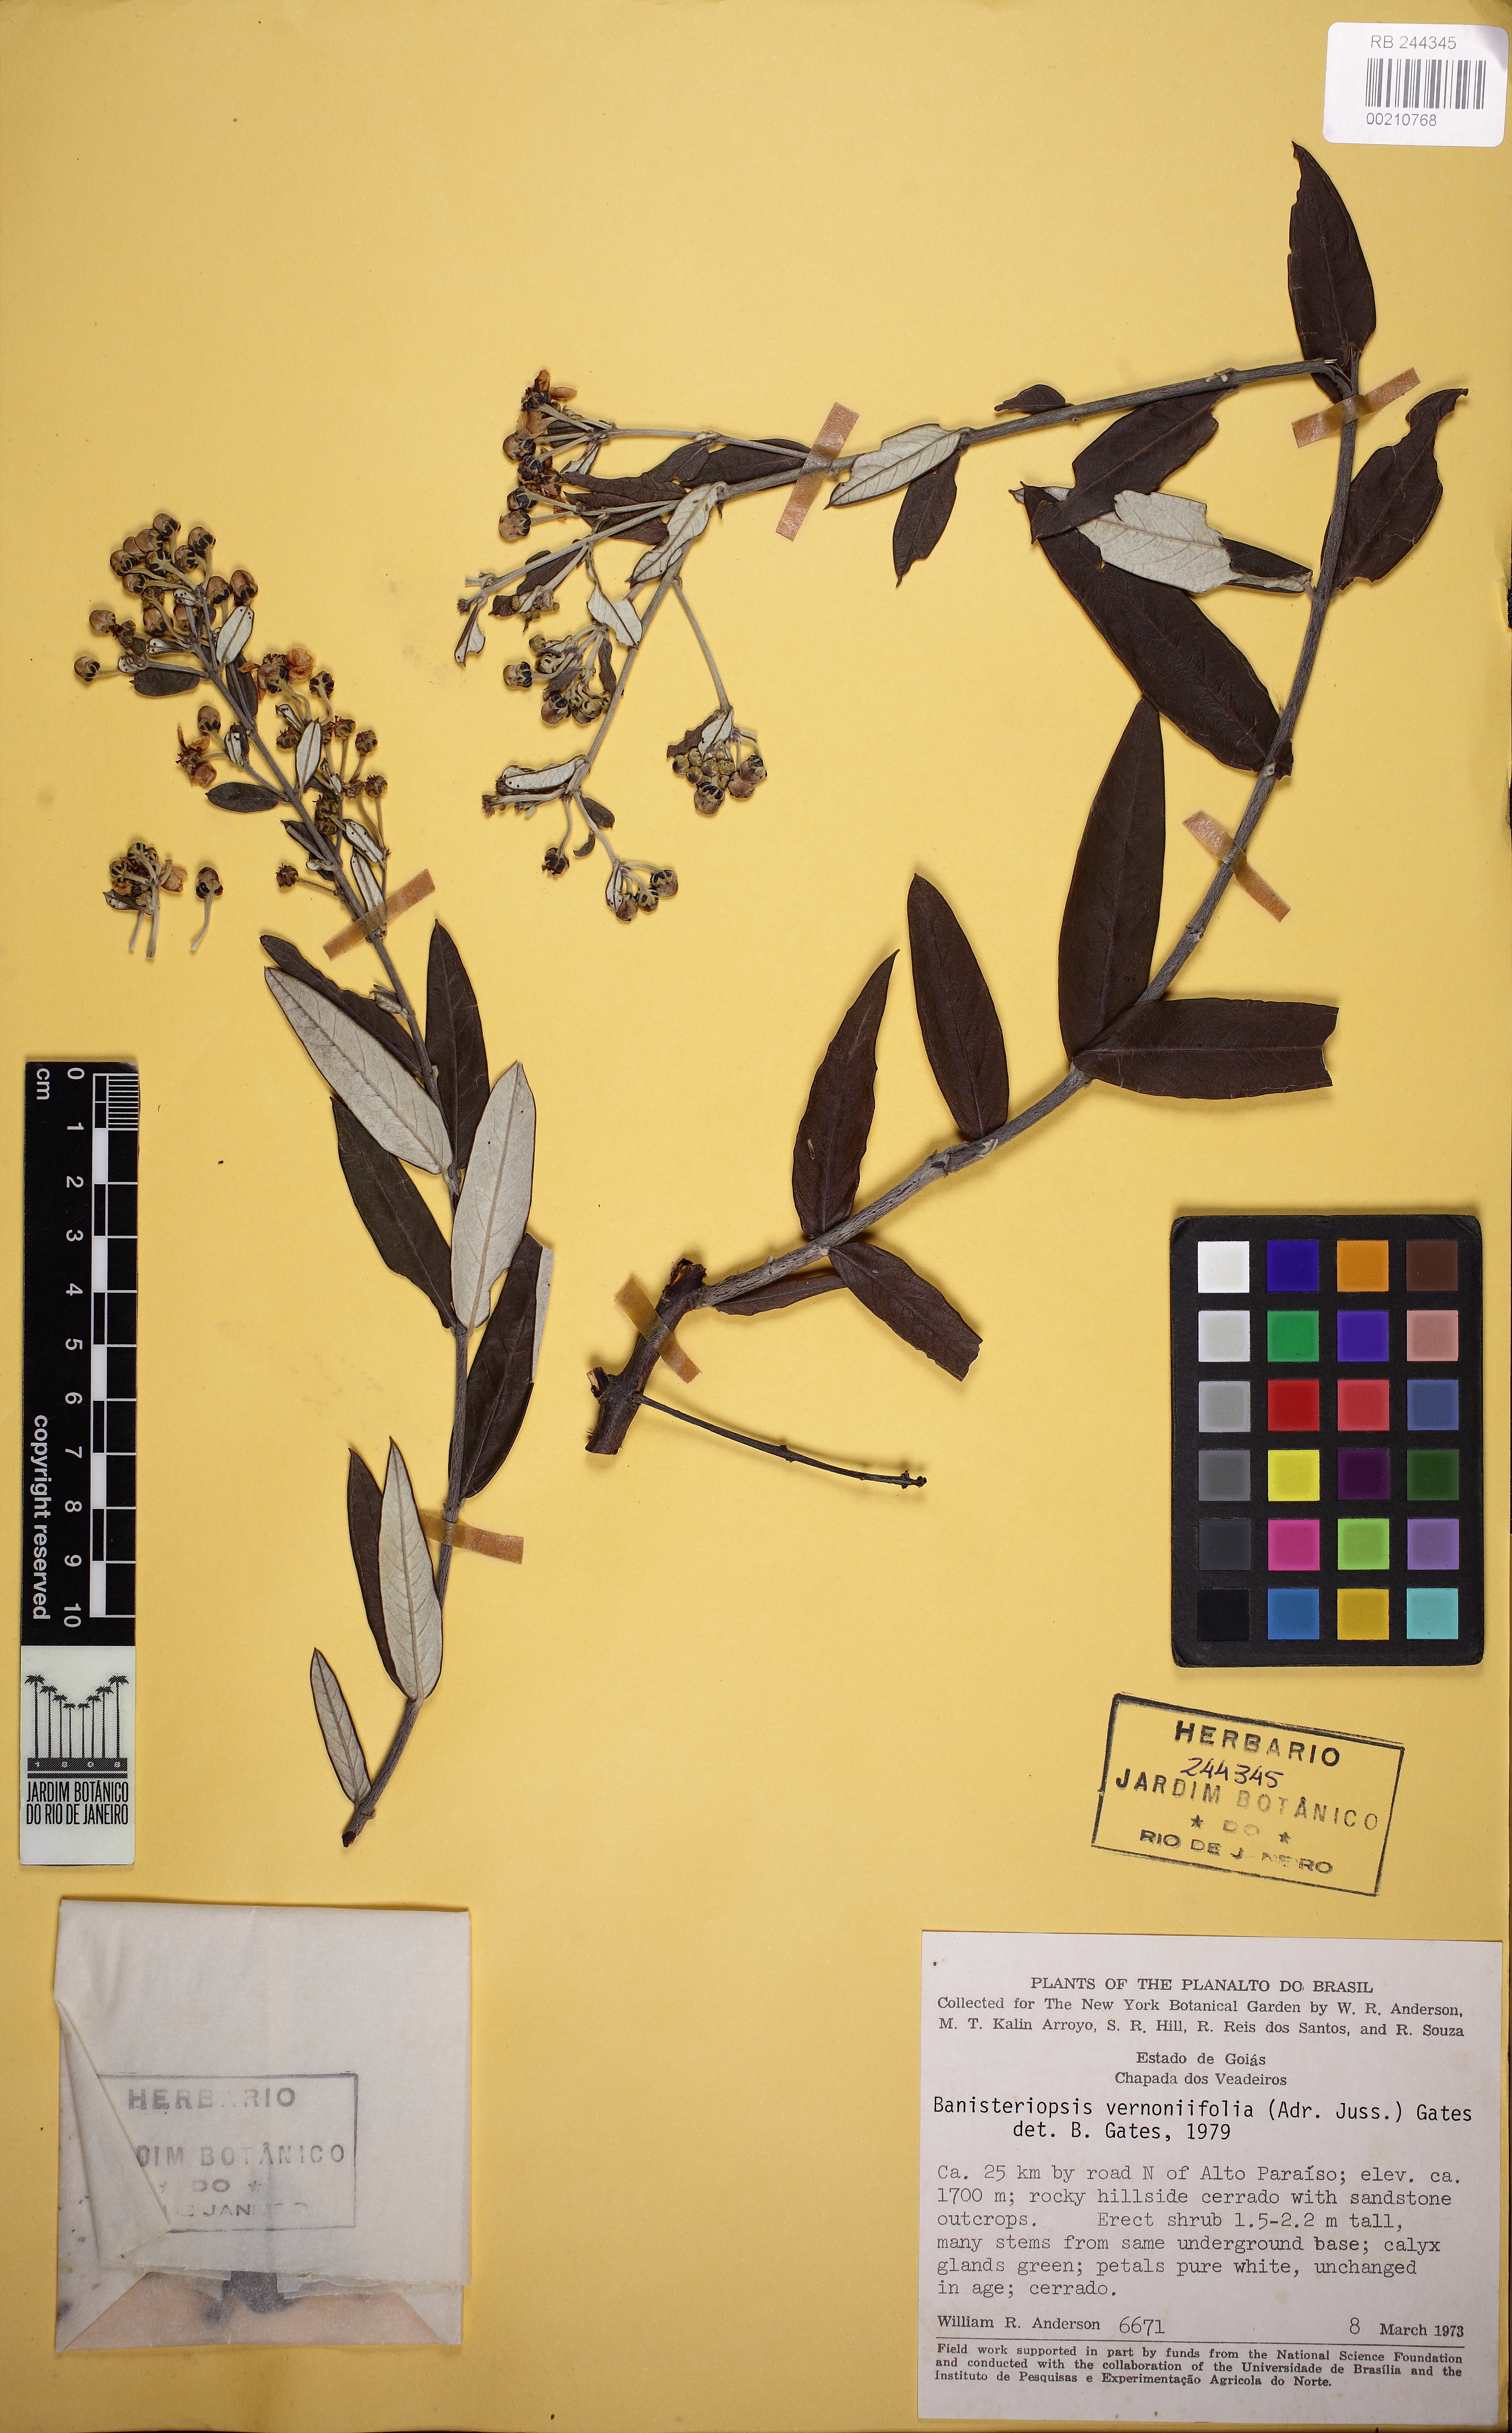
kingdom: Plantae
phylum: Tracheophyta
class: Magnoliopsida
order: Malpighiales
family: Malpighiaceae
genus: Banisteriopsis
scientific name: Banisteriopsis vernoniifolia
